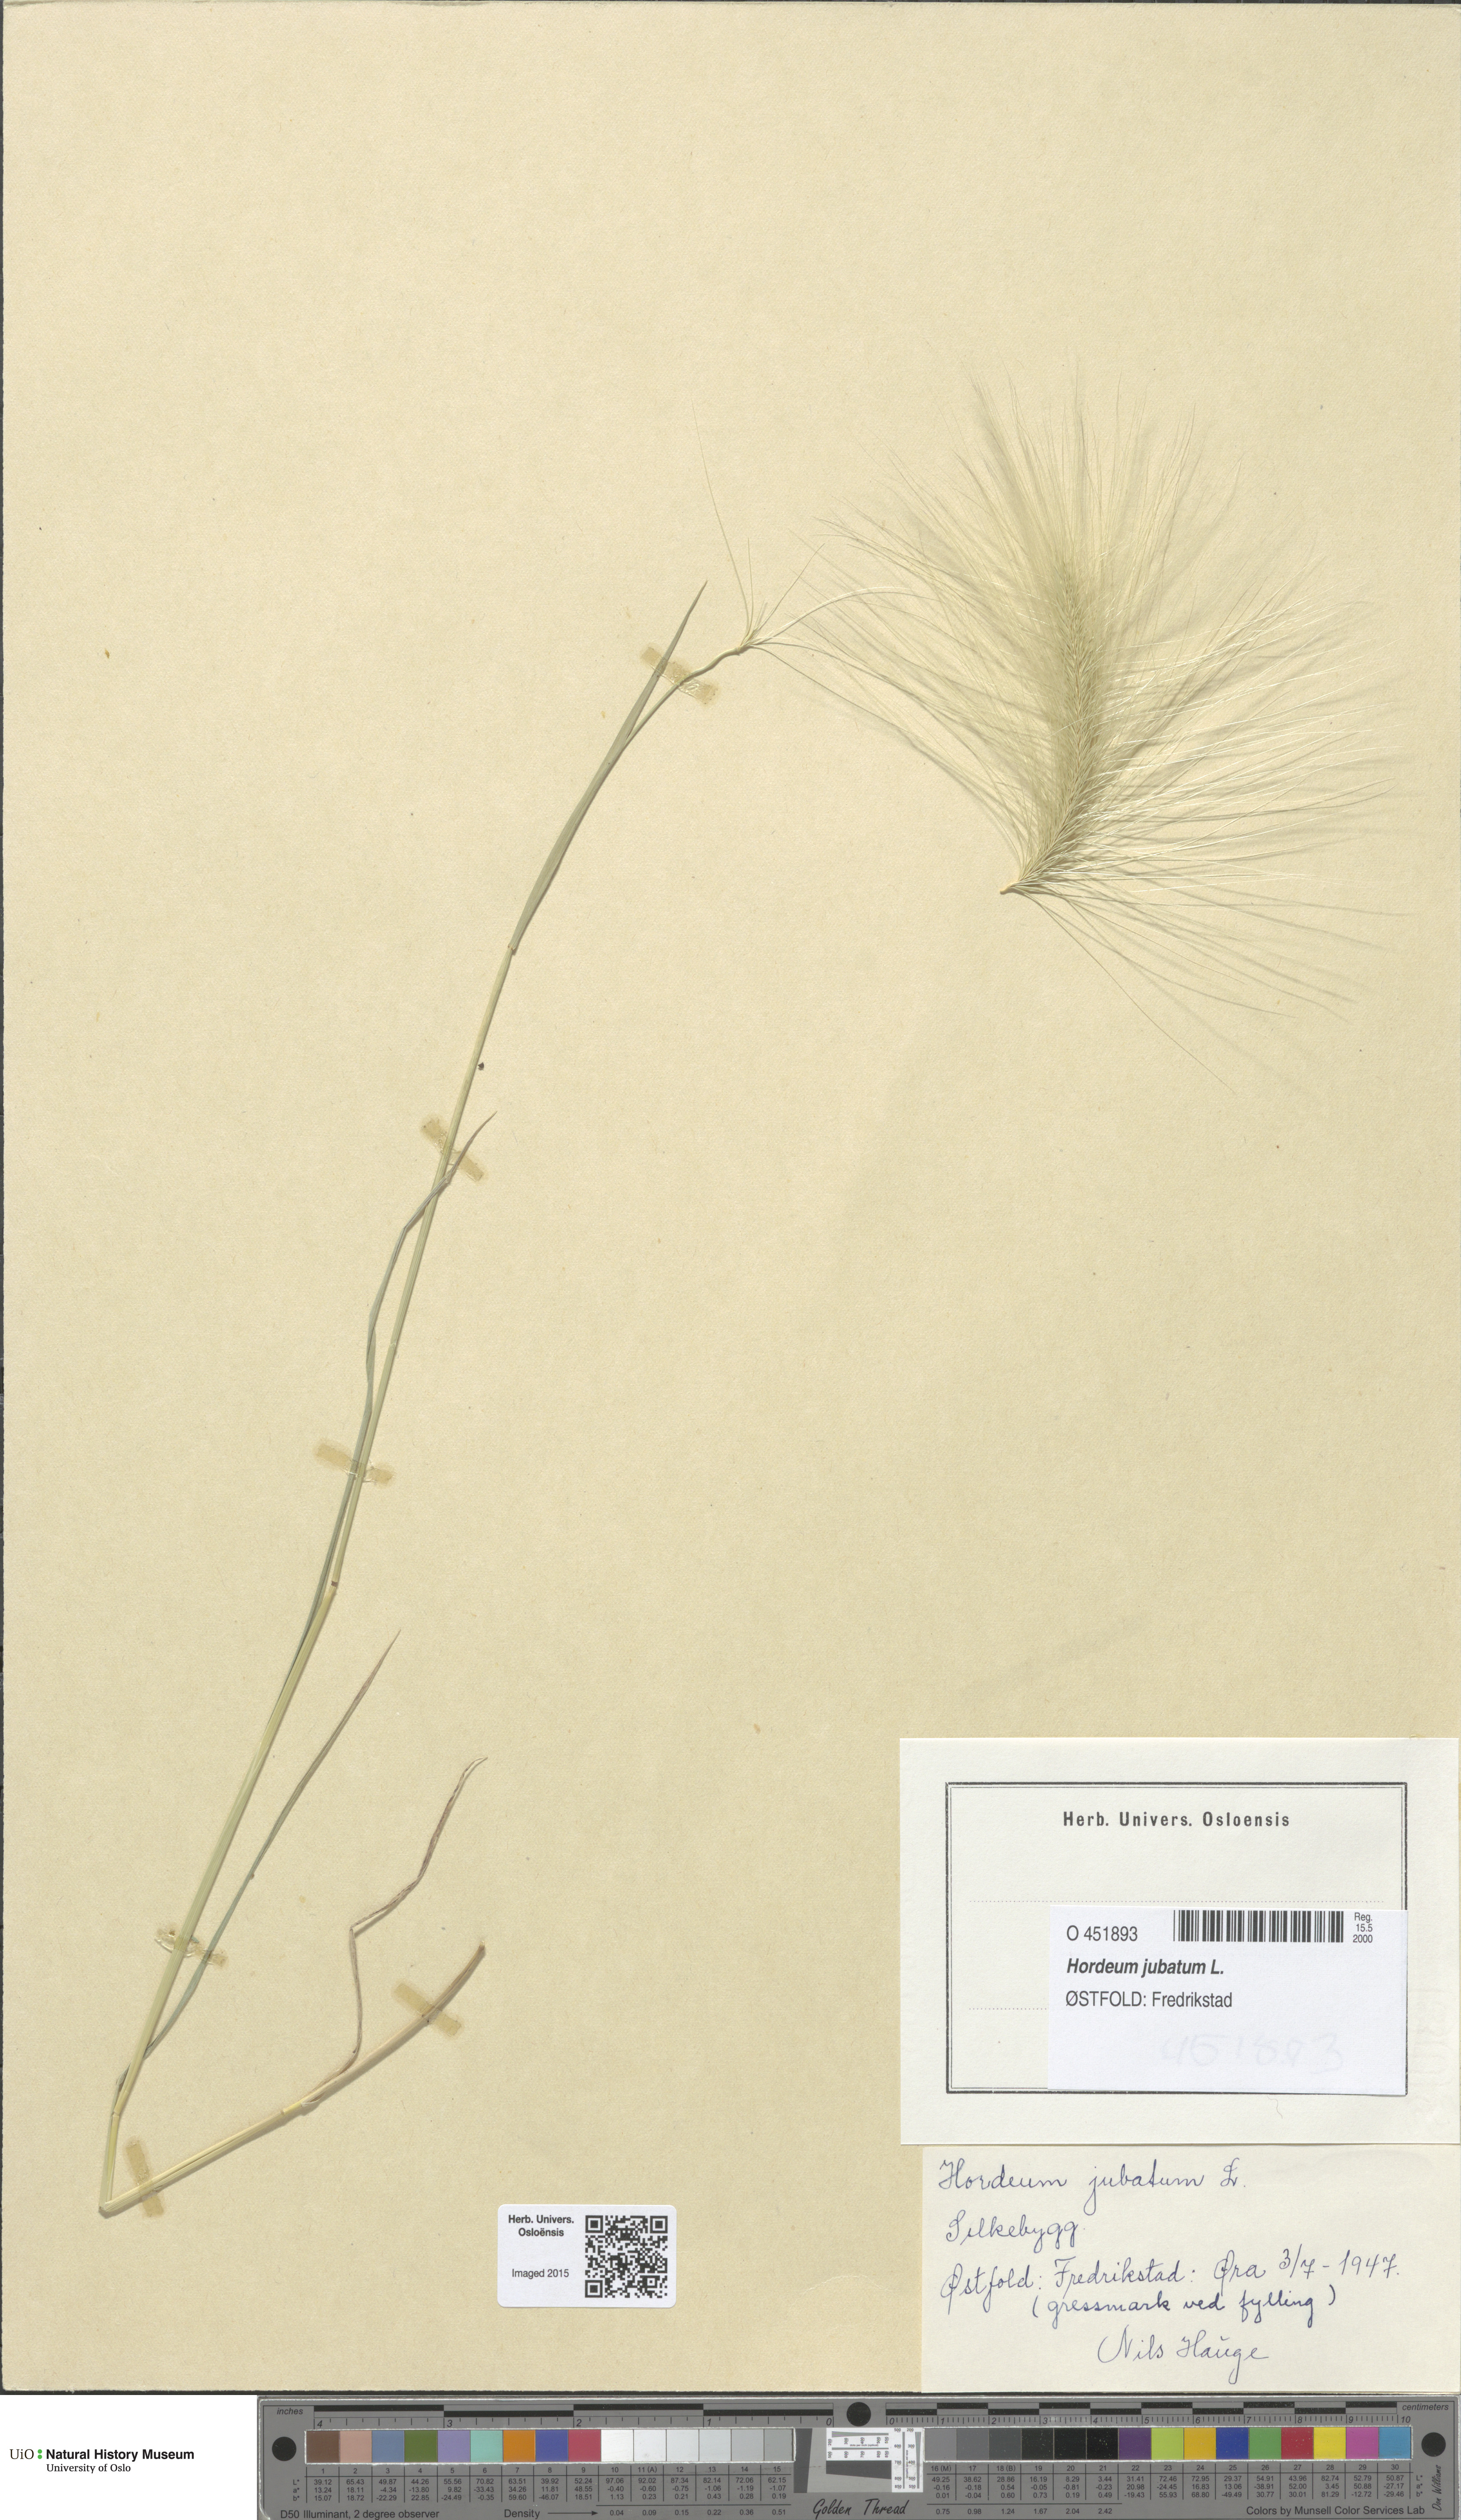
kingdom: Plantae
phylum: Tracheophyta
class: Liliopsida
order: Poales
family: Poaceae
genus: Hordeum
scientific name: Hordeum jubatum
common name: Foxtail barley
